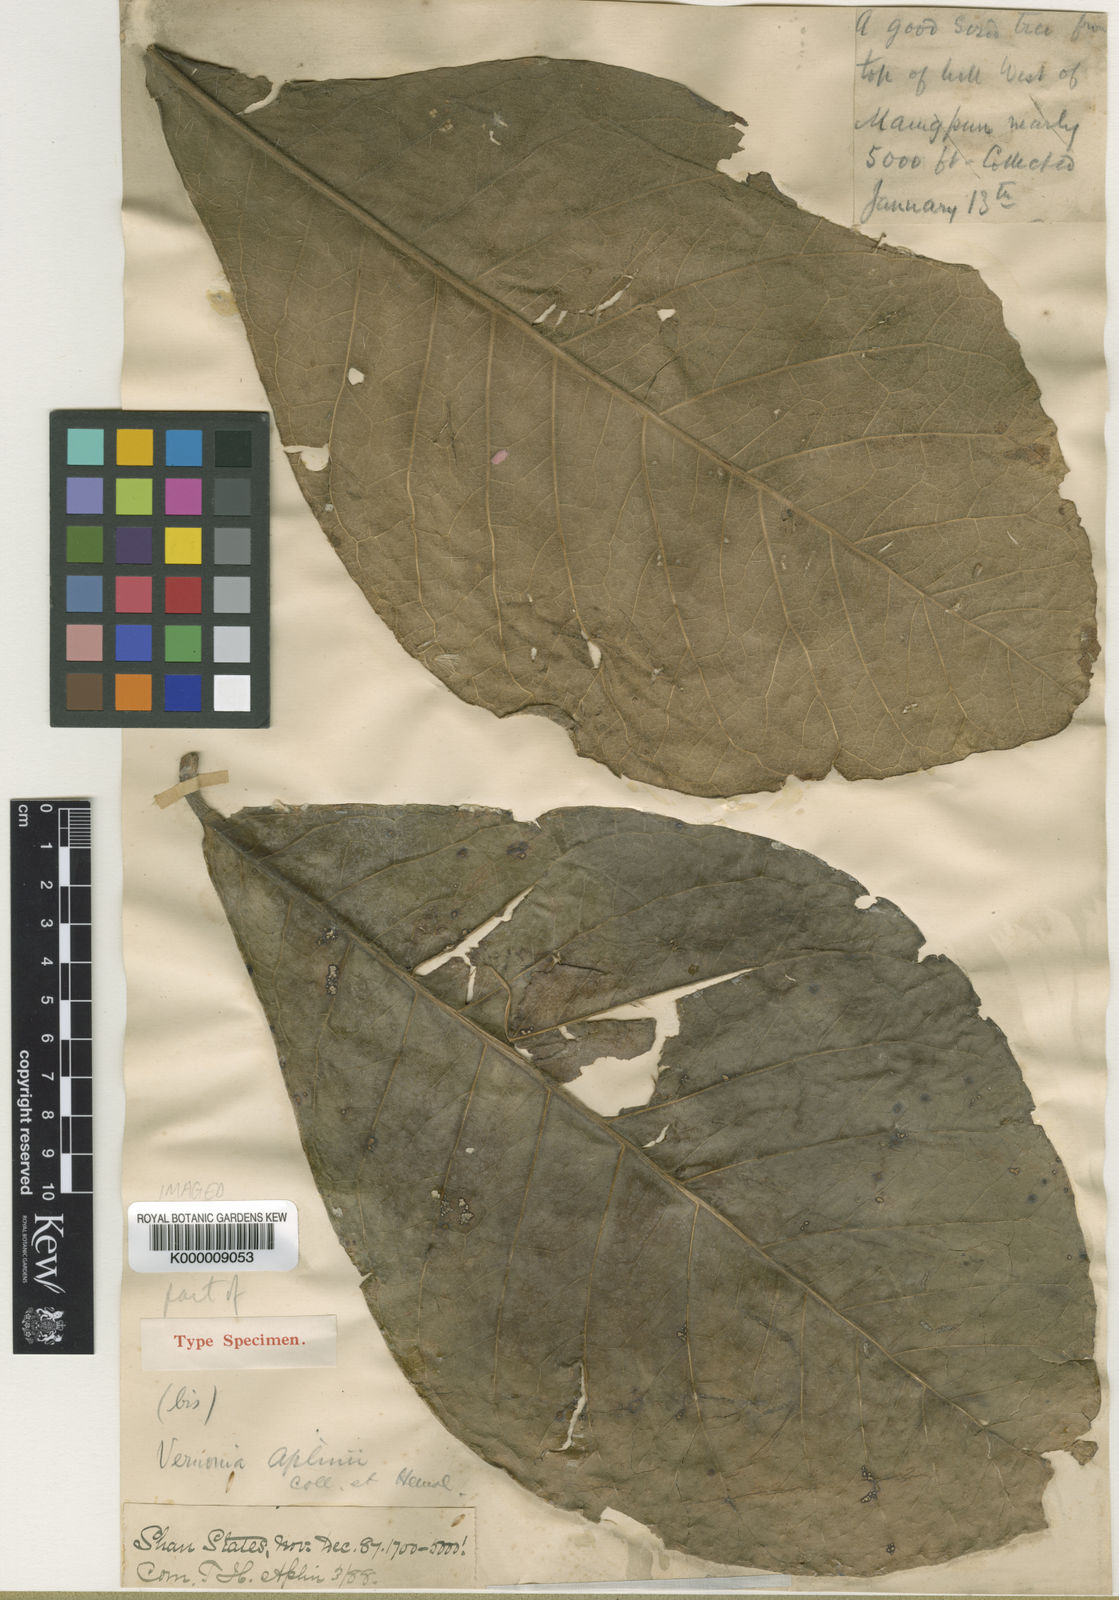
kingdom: Plantae
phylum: Tracheophyta
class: Magnoliopsida
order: Asterales
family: Asteraceae
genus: Monosis
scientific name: Monosis aplinii
